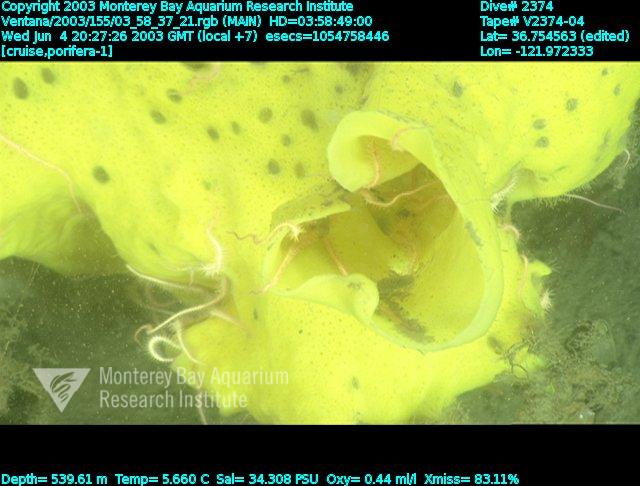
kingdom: Animalia
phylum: Porifera
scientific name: Porifera
